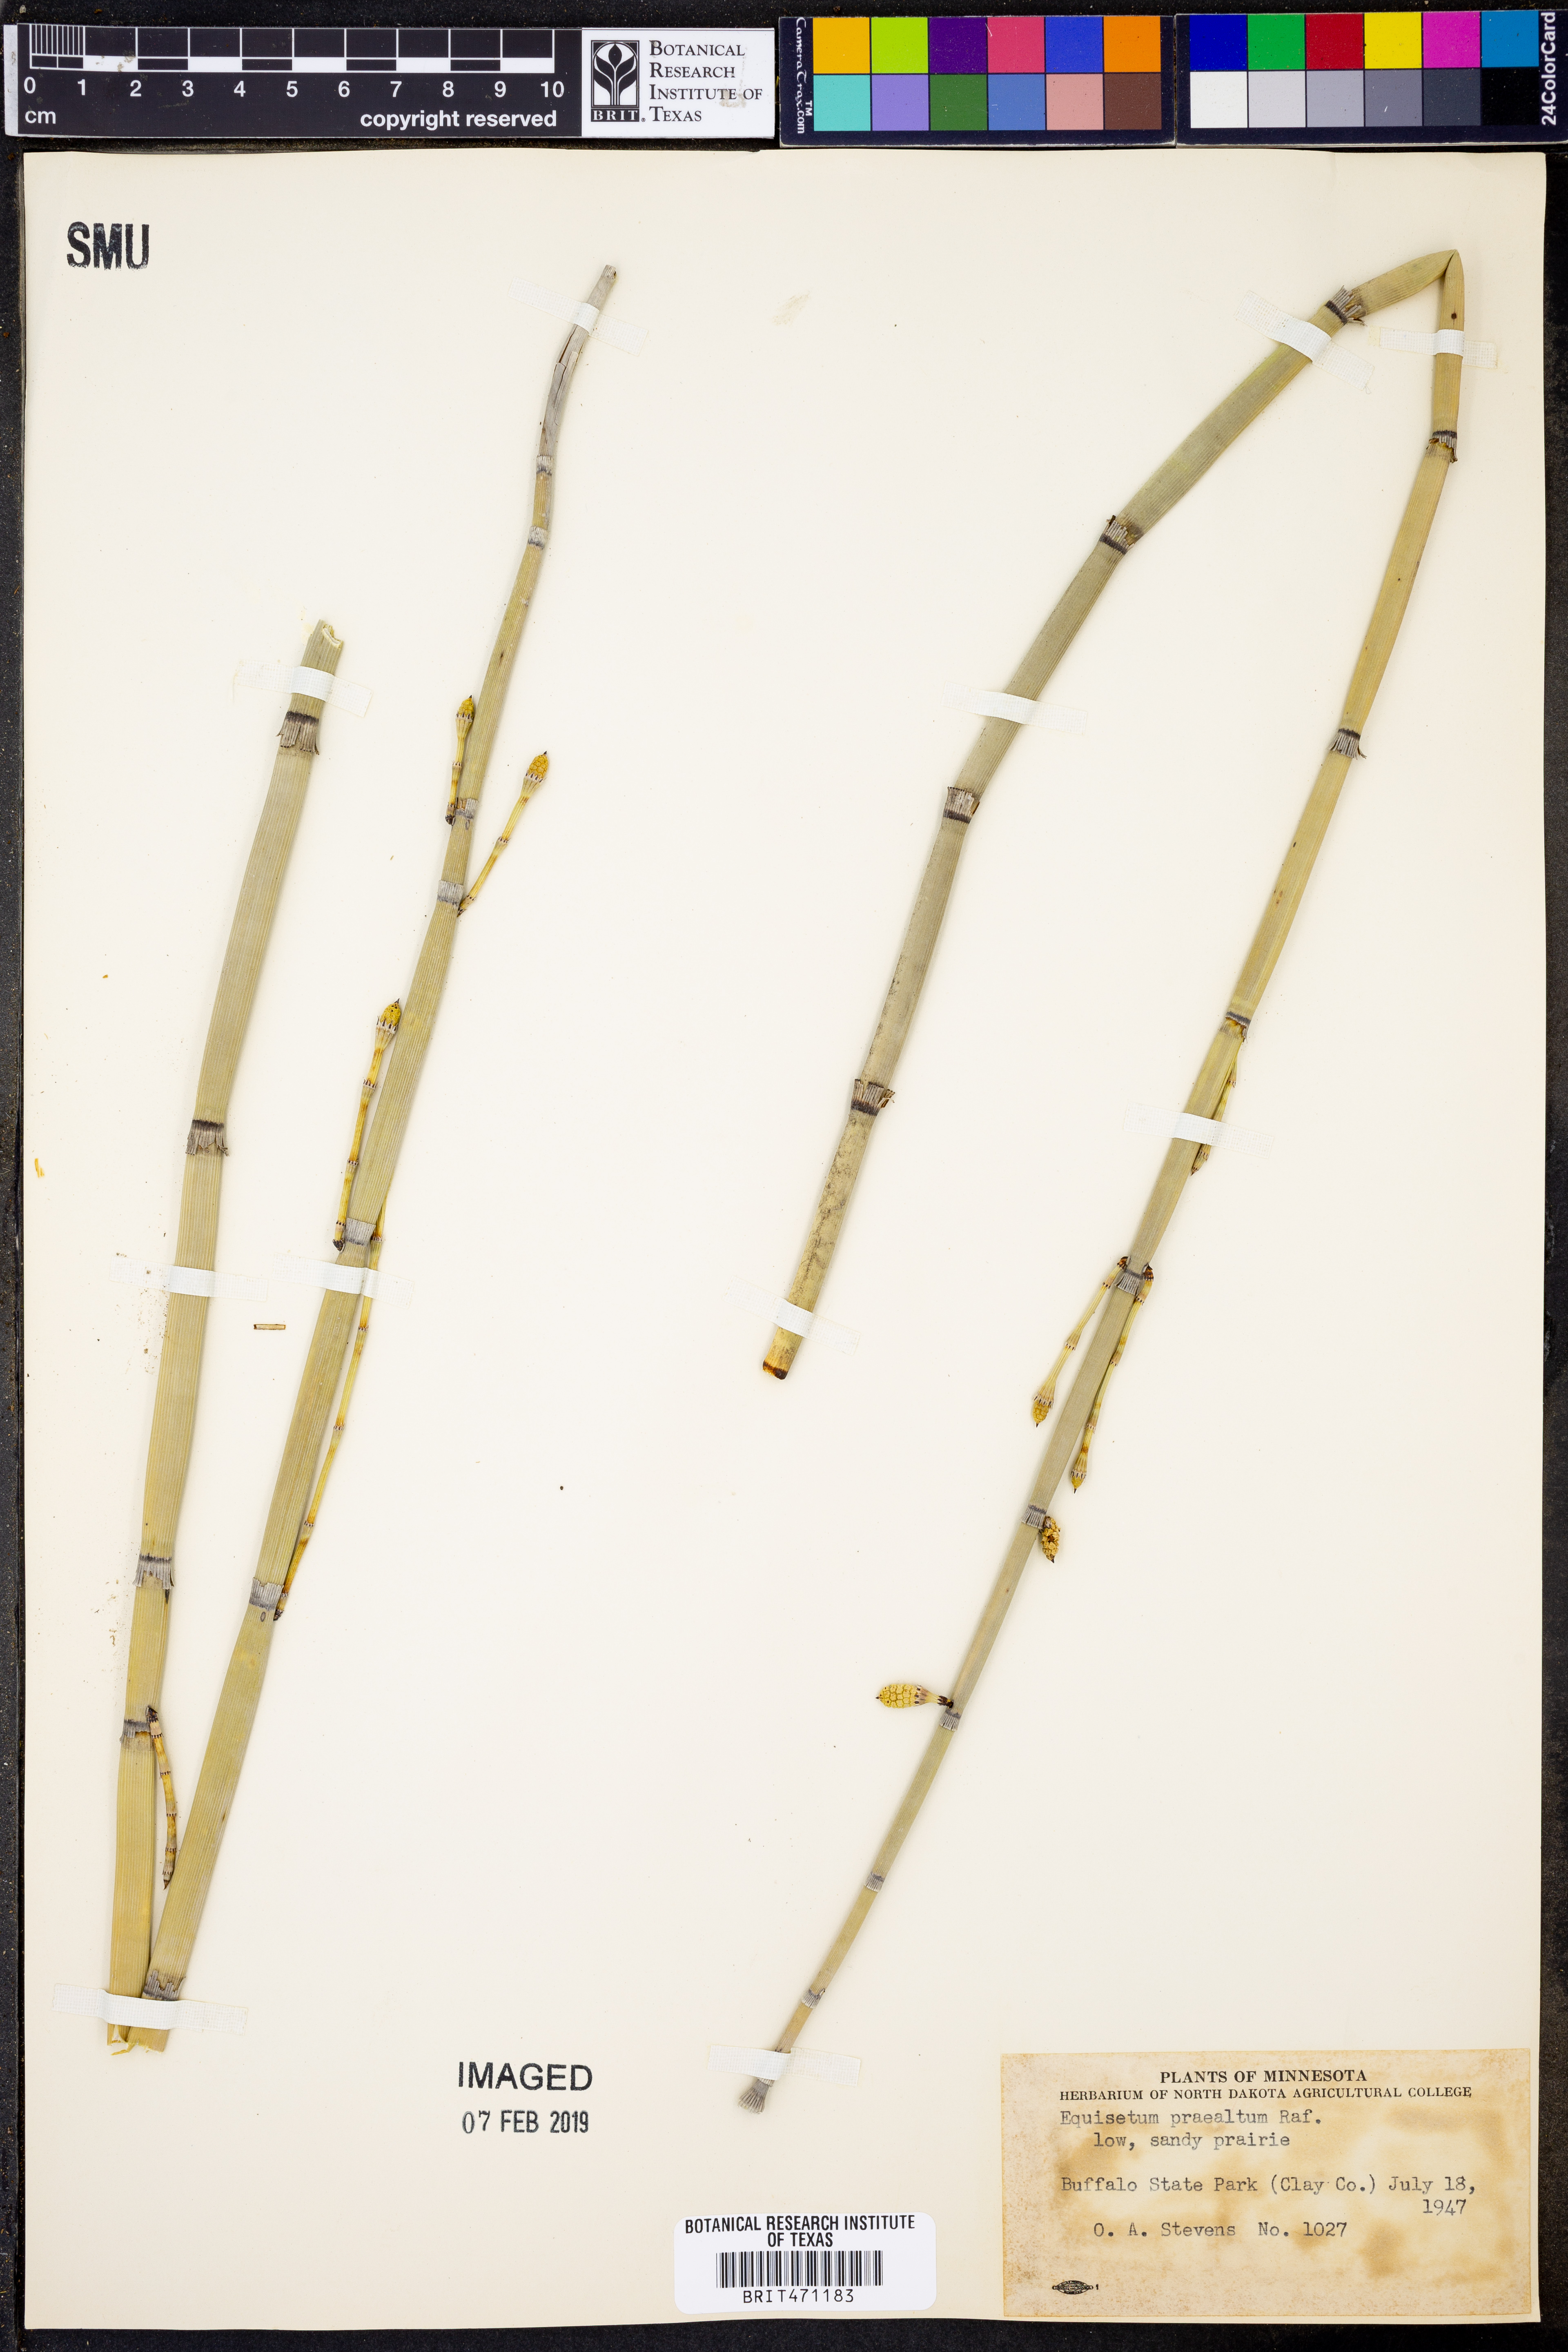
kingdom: Plantae
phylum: Tracheophyta
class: Polypodiopsida
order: Equisetales
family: Equisetaceae
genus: Equisetum
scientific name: Equisetum praealtum
